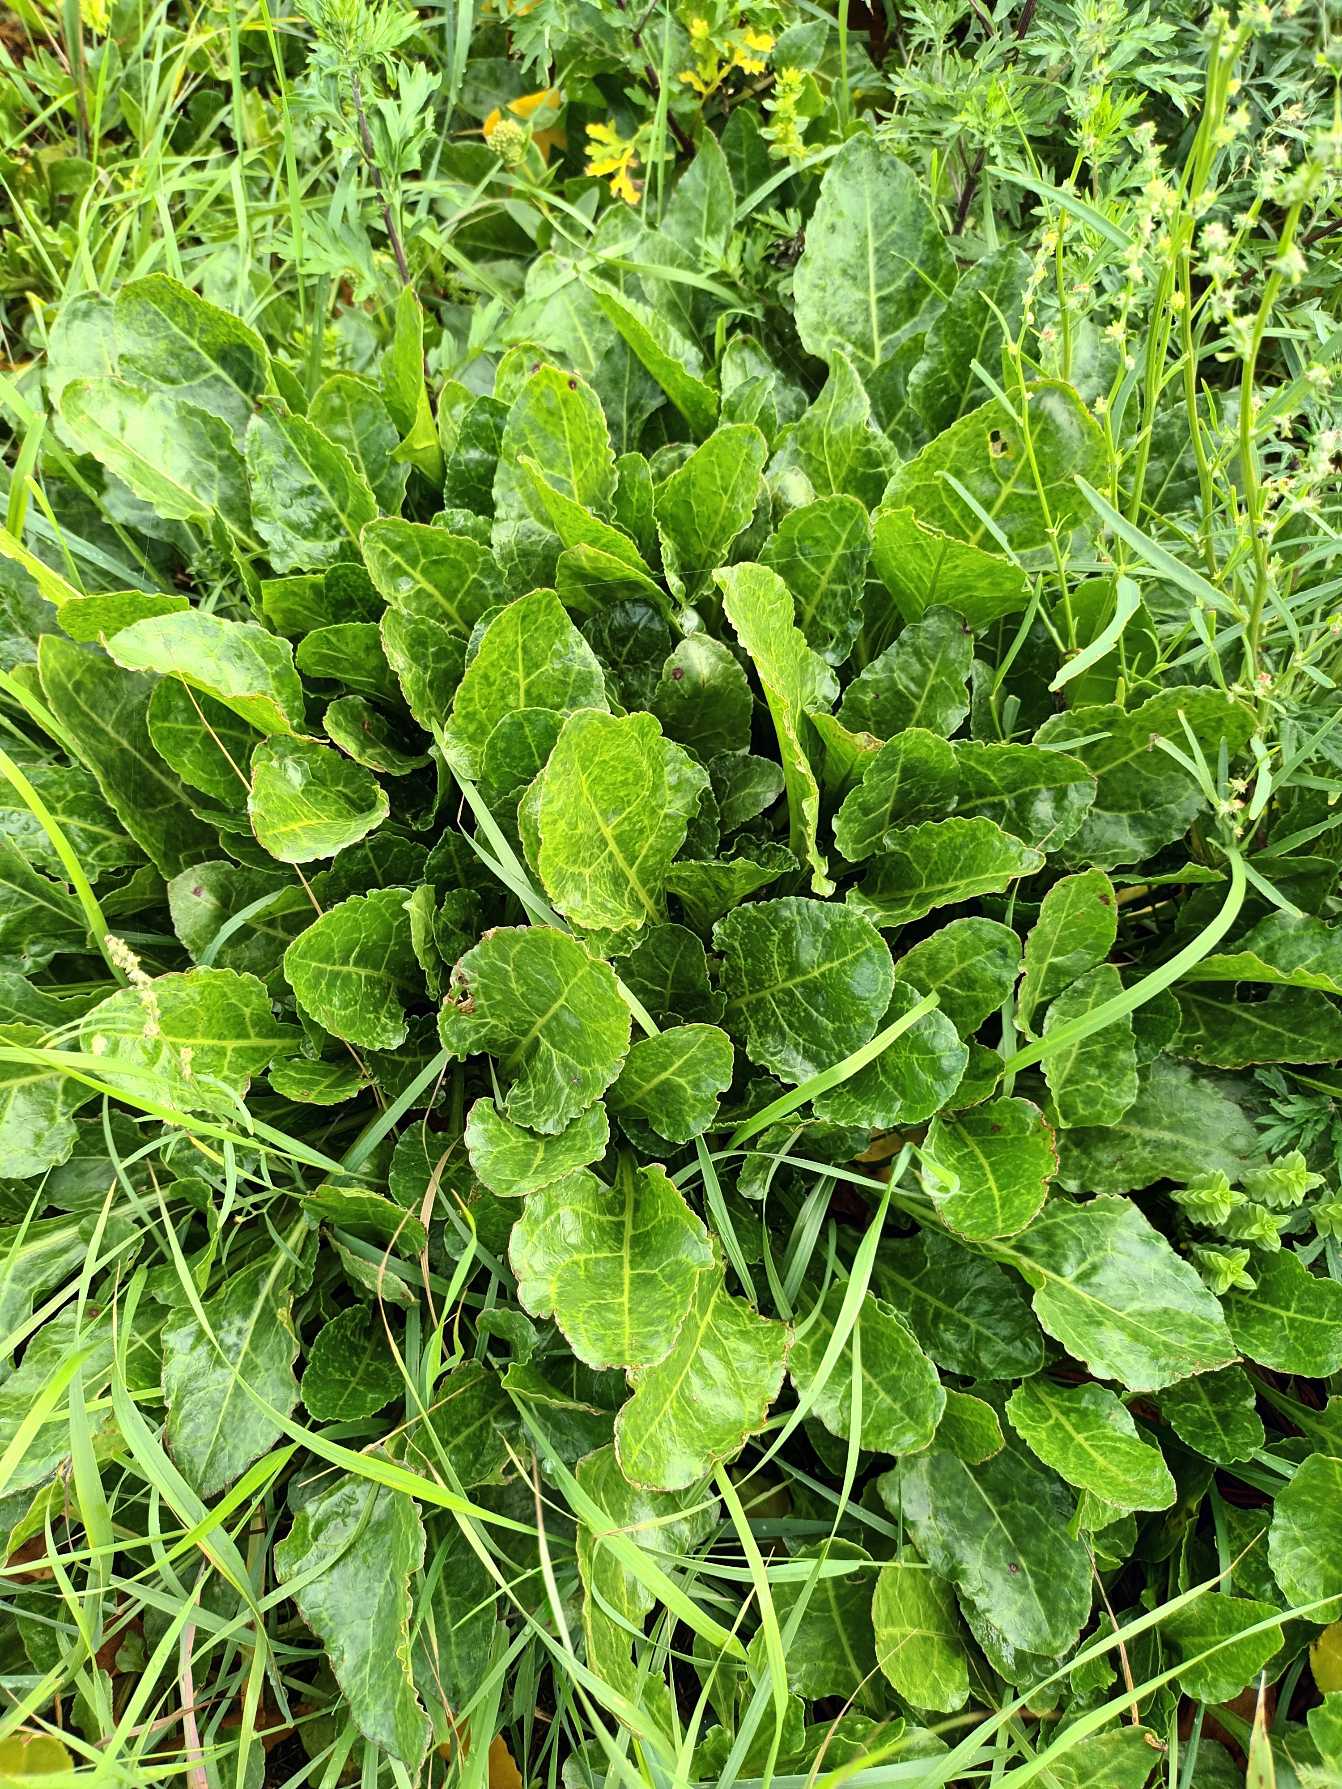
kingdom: Plantae
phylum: Tracheophyta
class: Magnoliopsida
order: Caryophyllales
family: Amaranthaceae
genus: Beta
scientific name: Beta maritima
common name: Strand-bede
